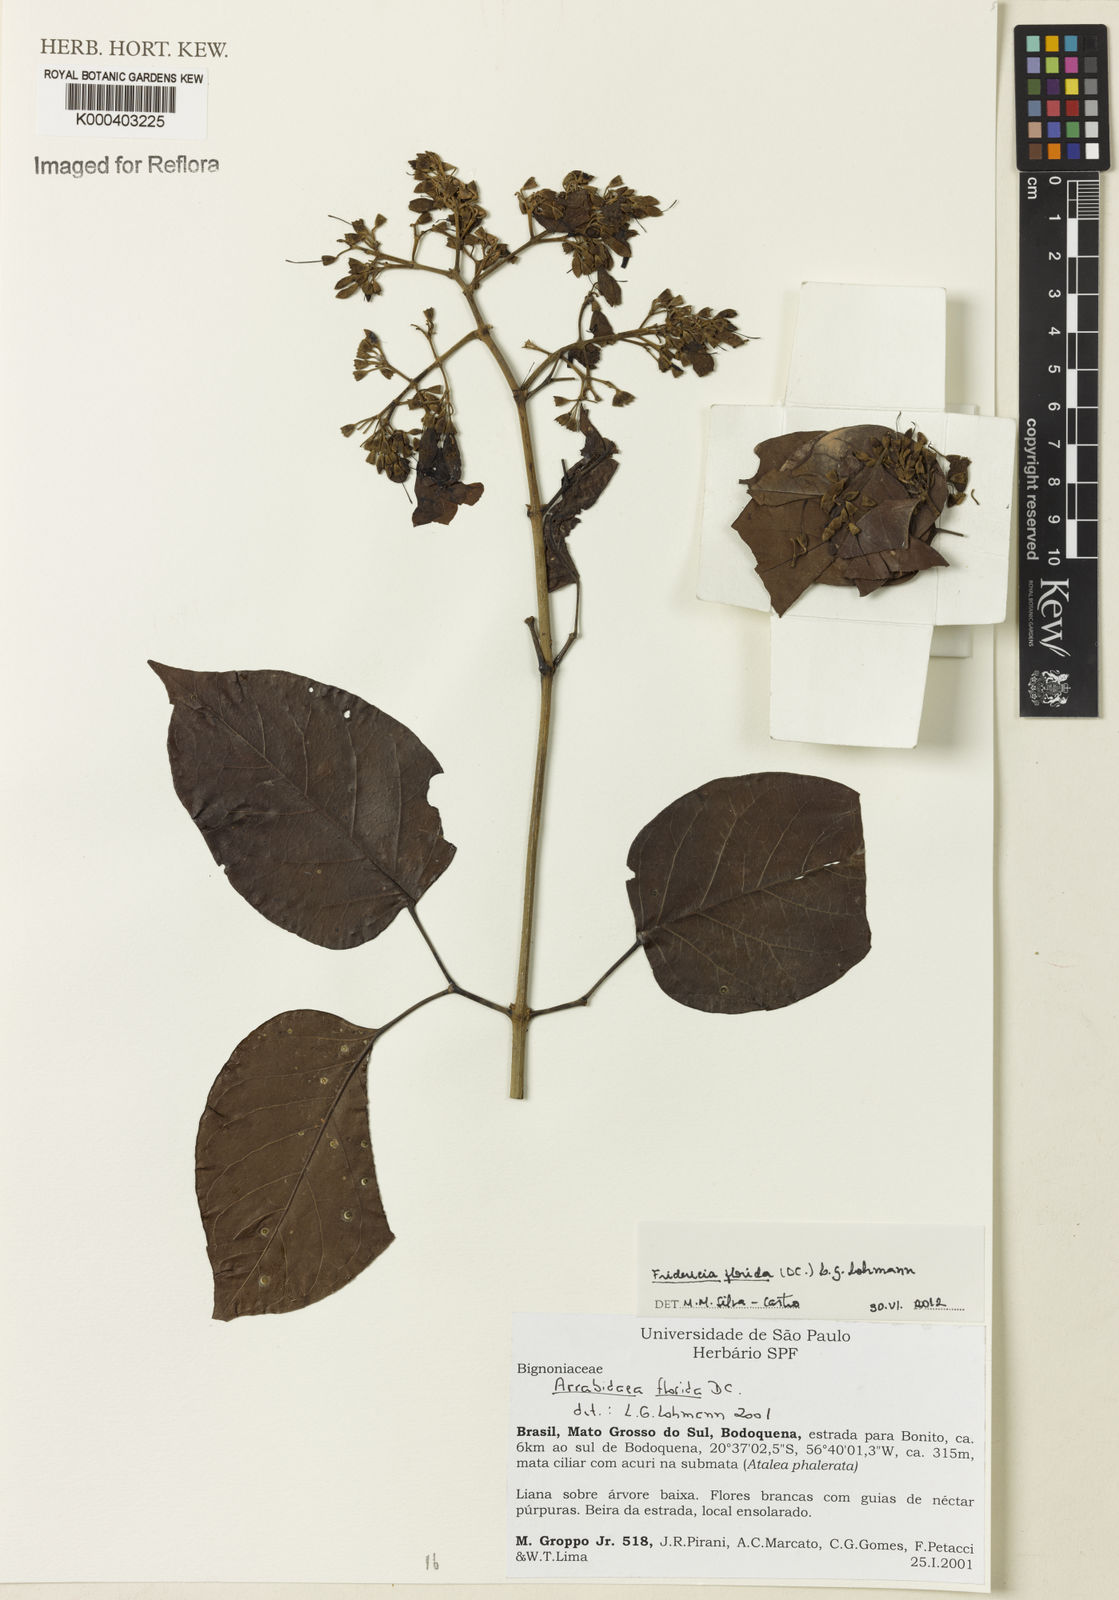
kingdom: Plantae
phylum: Tracheophyta
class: Magnoliopsida
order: Lamiales
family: Bignoniaceae
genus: Fridericia
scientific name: Fridericia florida
